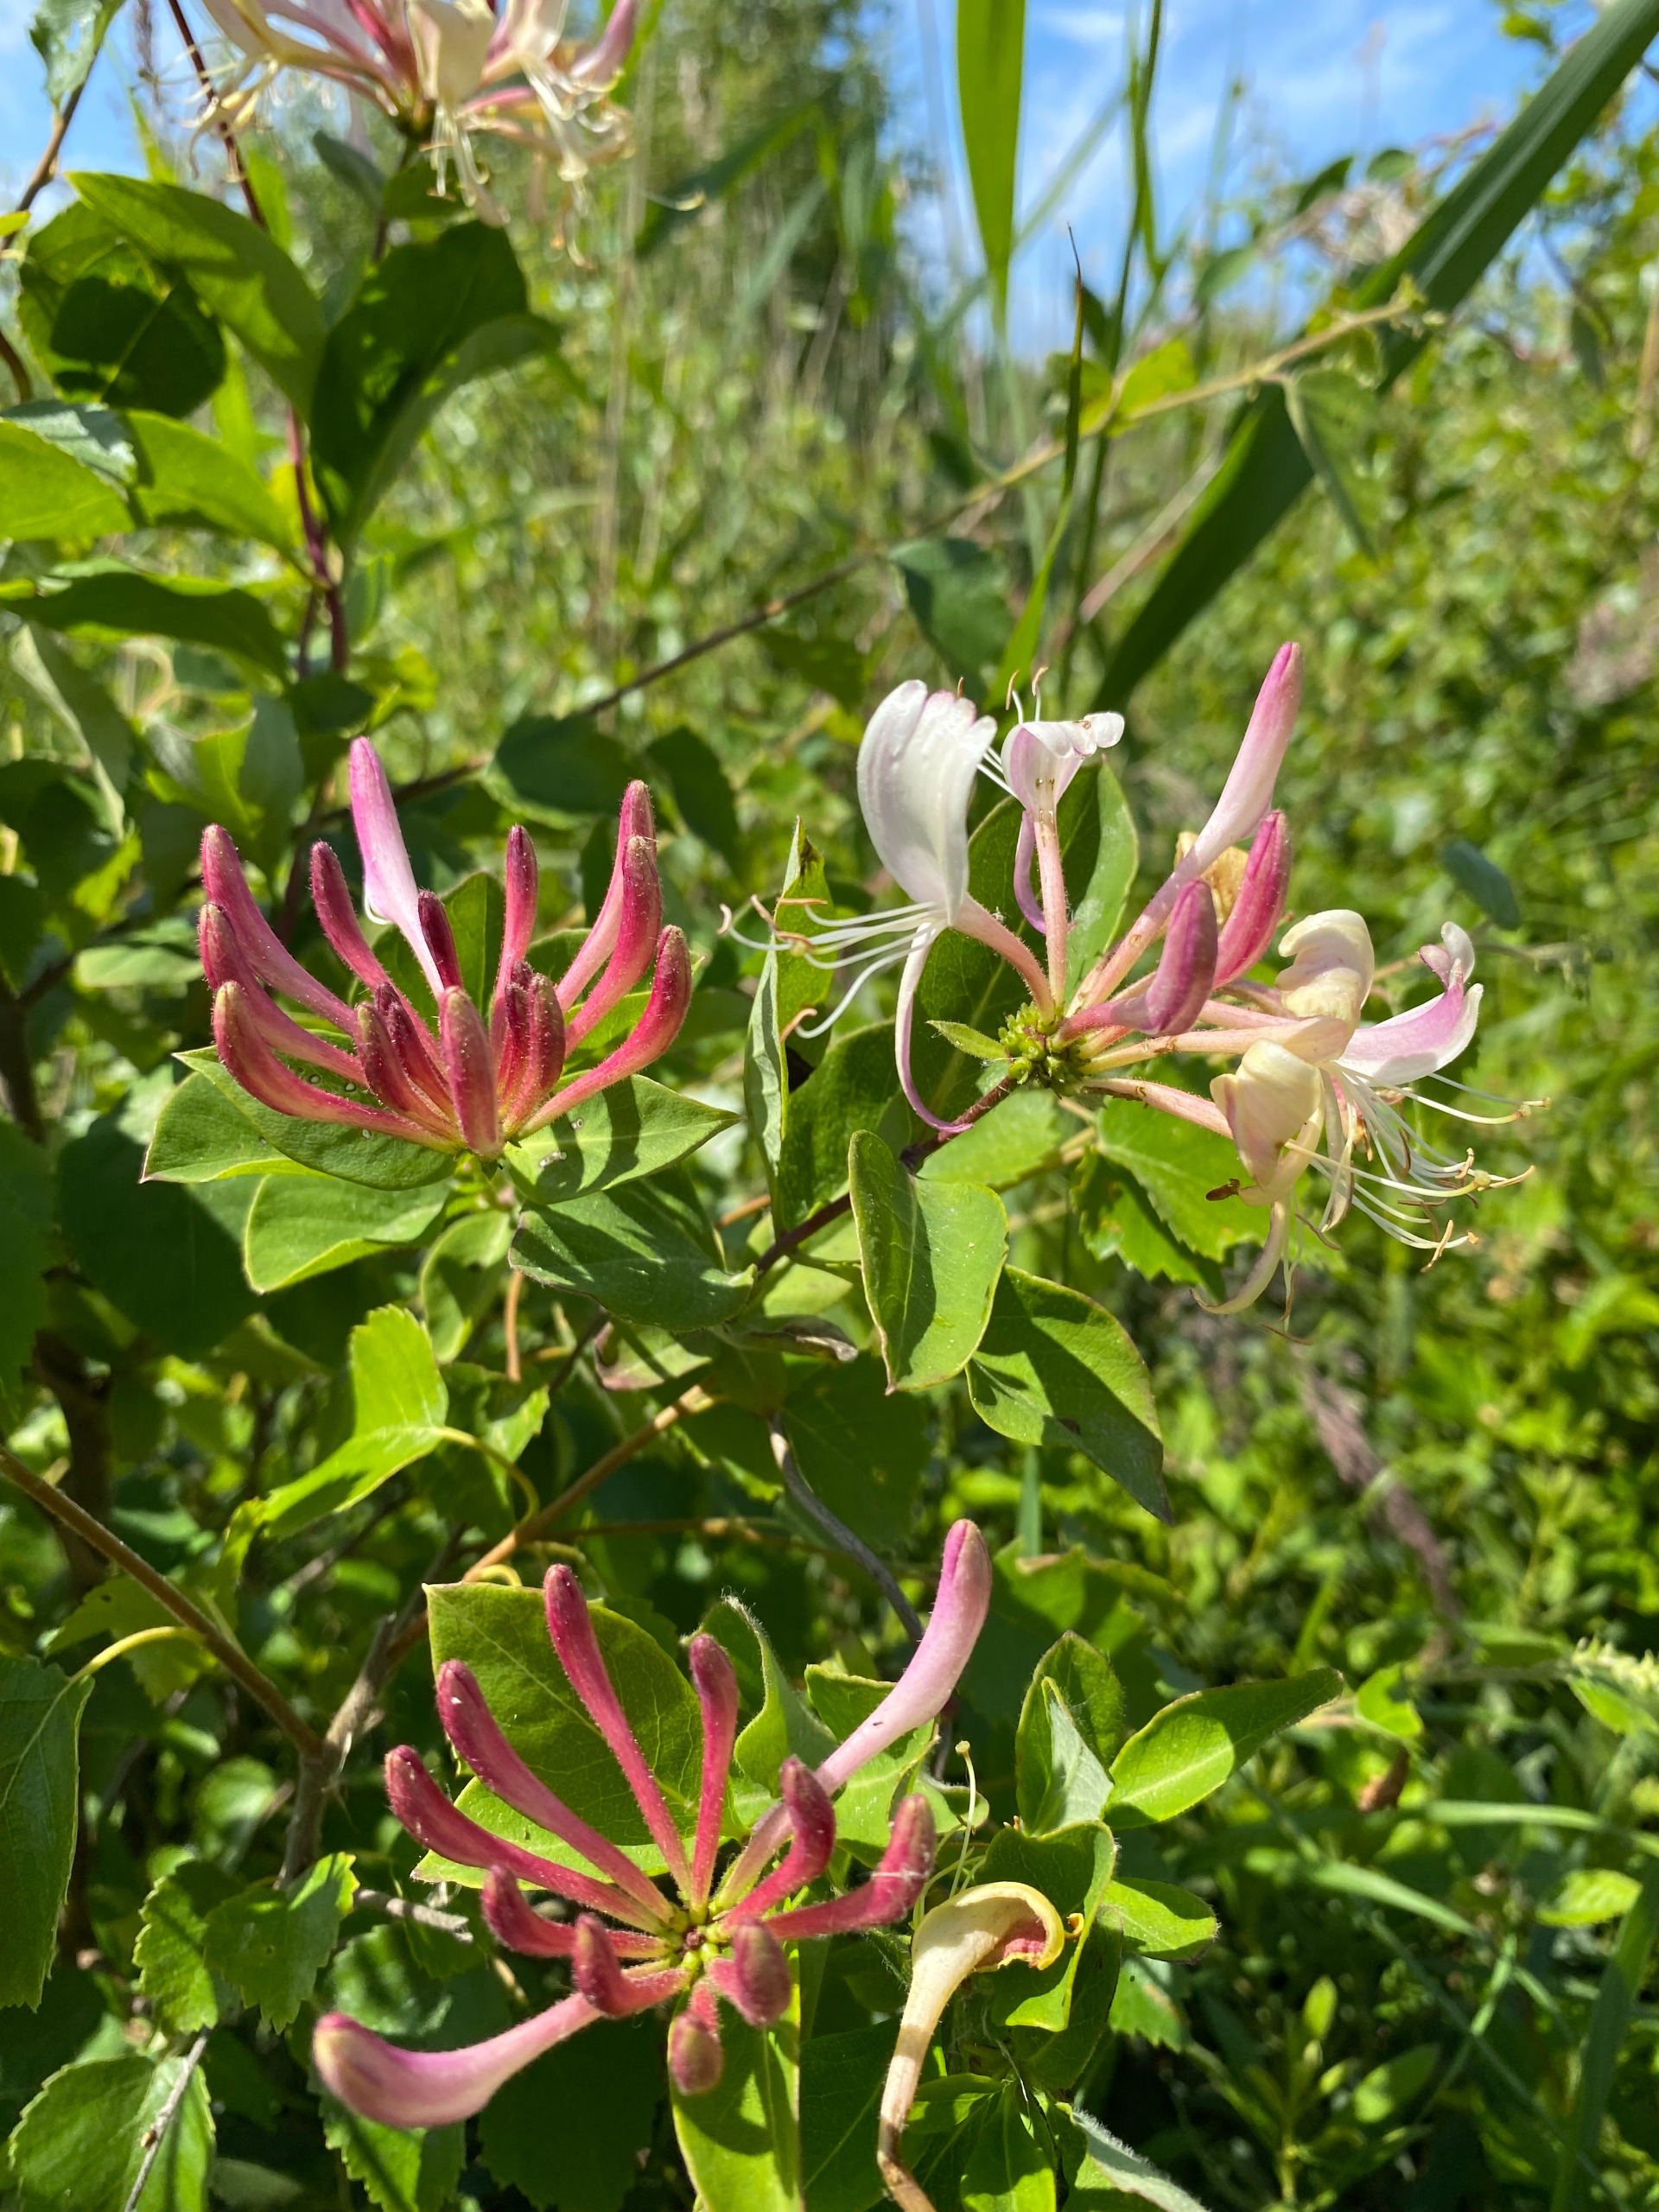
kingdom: Plantae
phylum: Tracheophyta
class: Magnoliopsida
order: Dipsacales
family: Caprifoliaceae
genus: Lonicera
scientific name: Lonicera periclymenum
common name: Almindelig gedeblad
